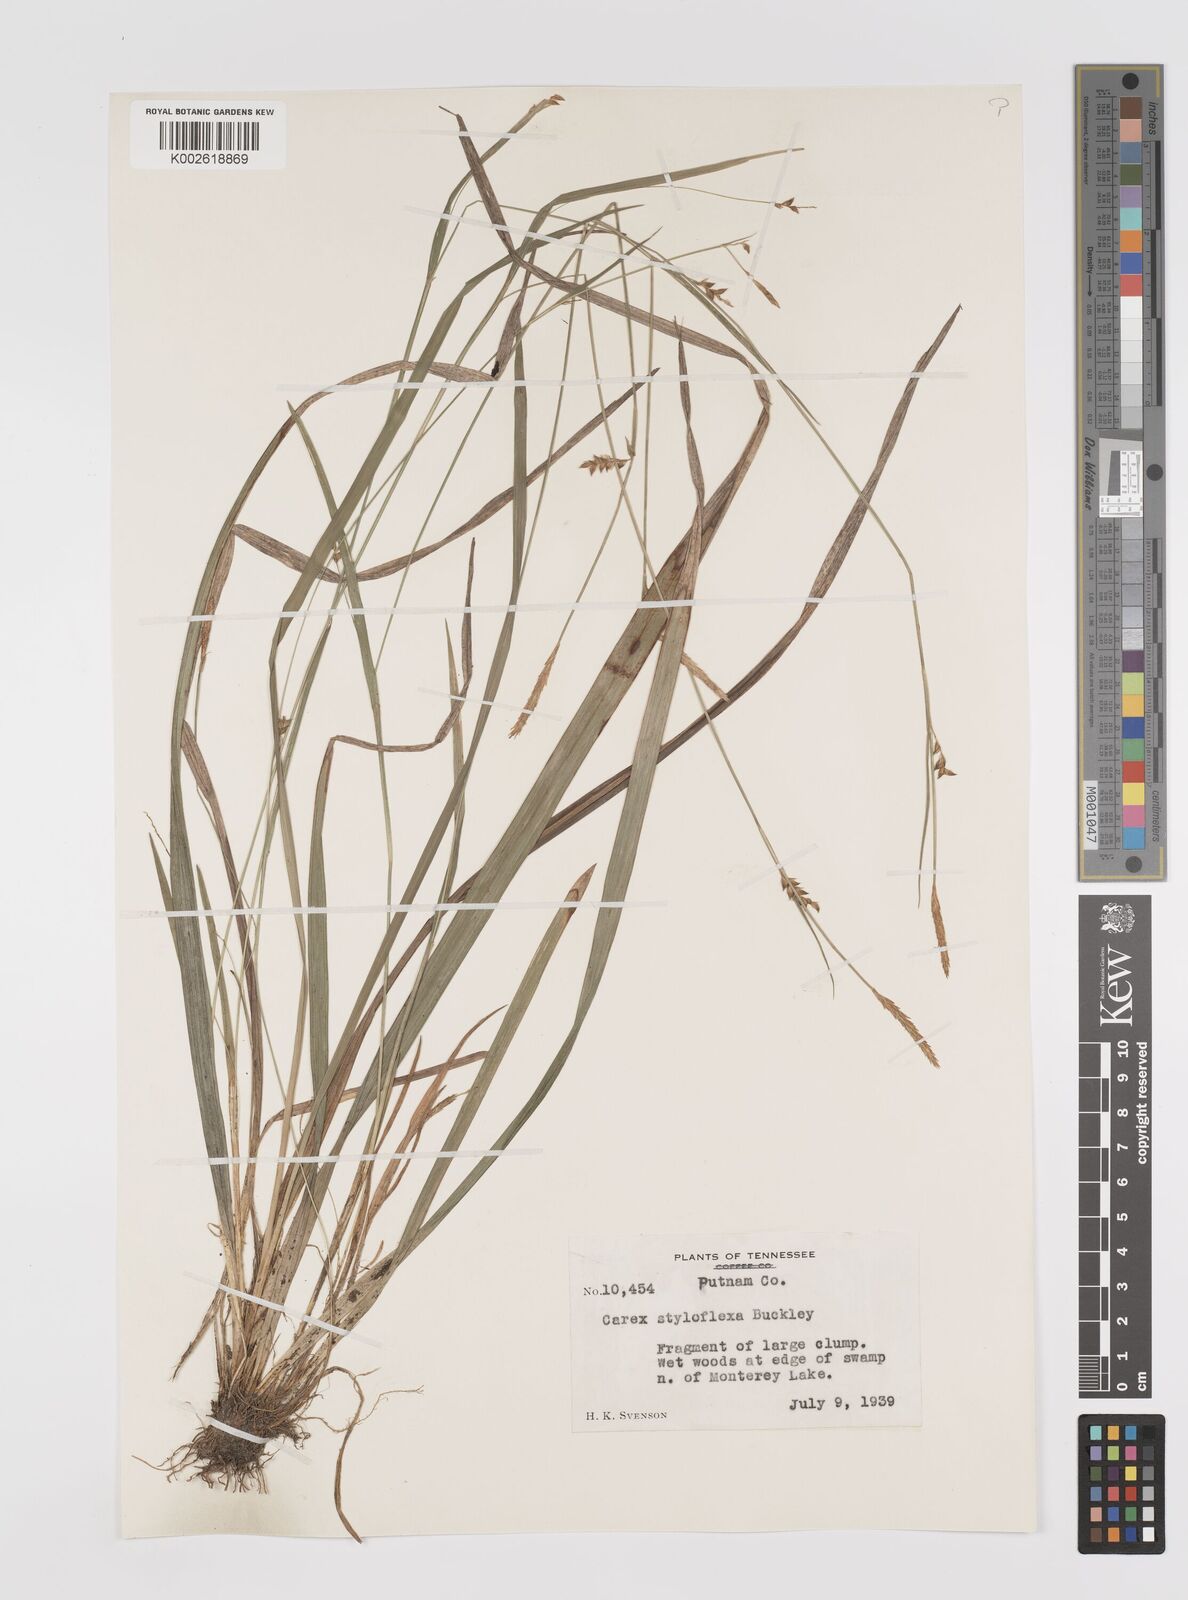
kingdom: Plantae
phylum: Tracheophyta
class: Liliopsida
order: Poales
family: Cyperaceae
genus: Carex
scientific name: Carex styloflexa
